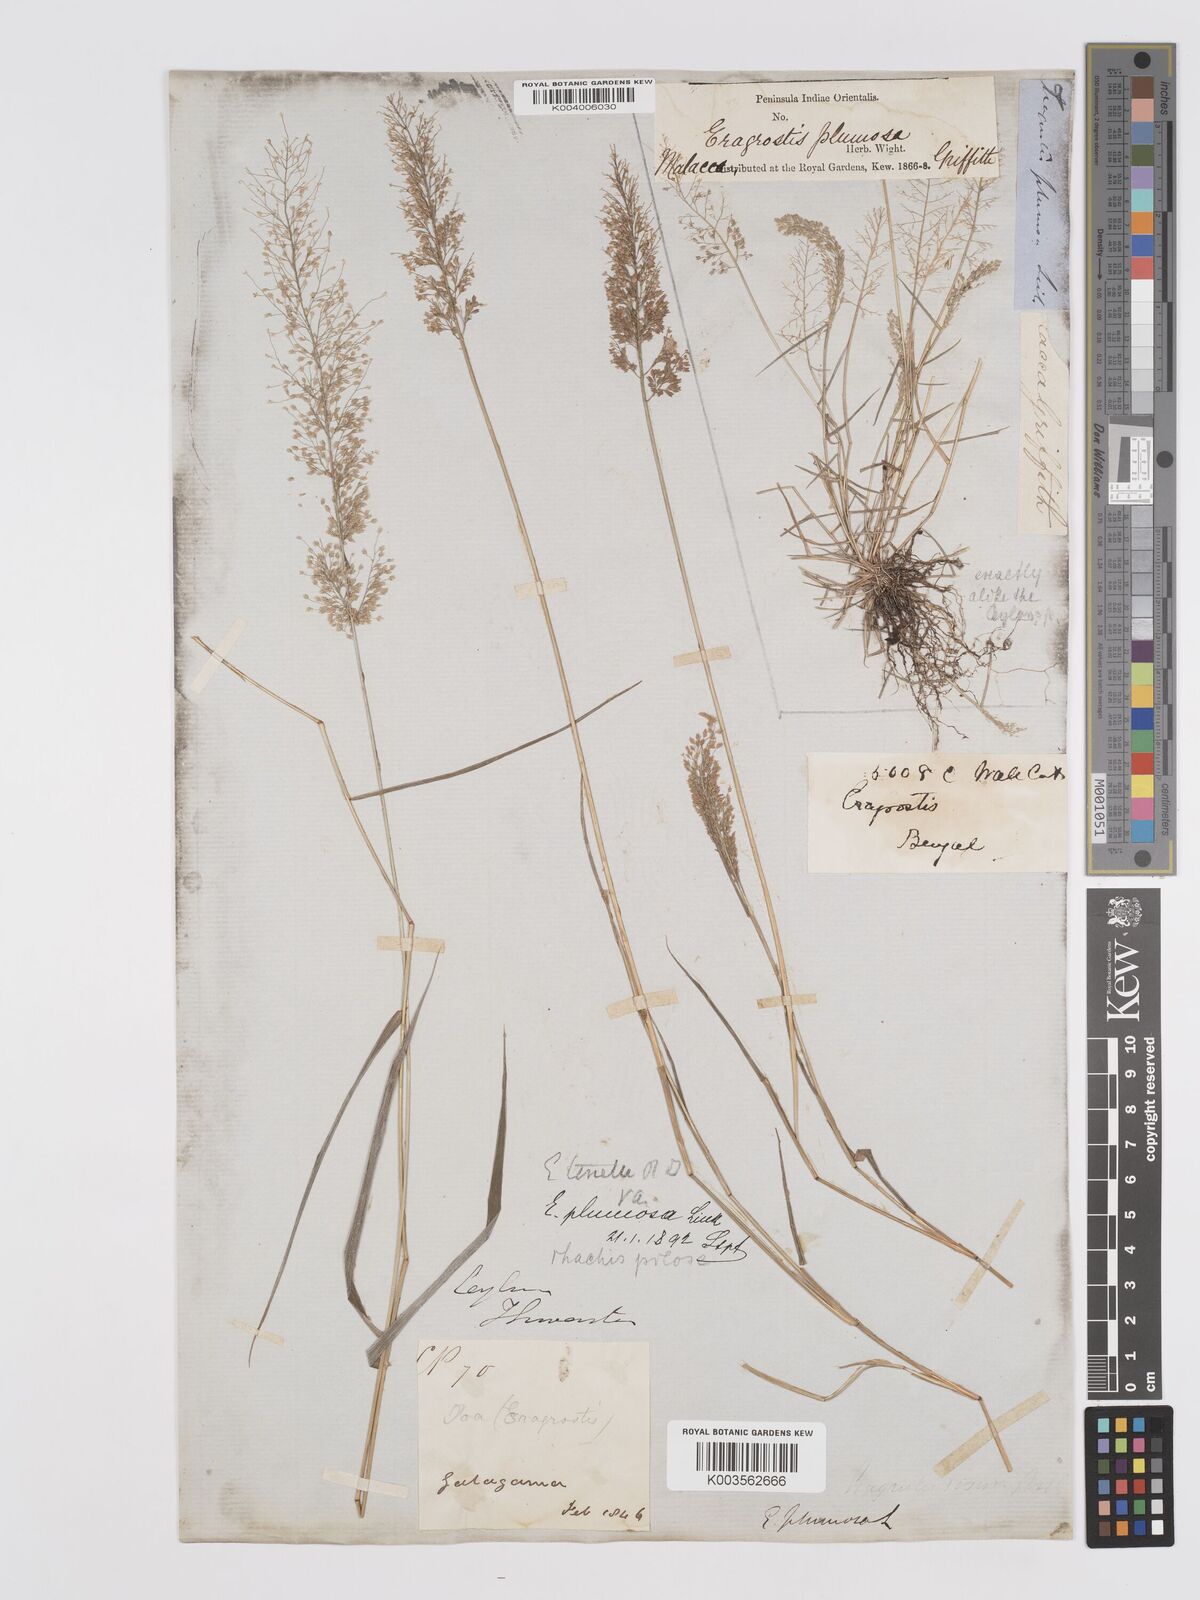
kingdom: Plantae
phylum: Tracheophyta
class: Liliopsida
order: Poales
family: Poaceae
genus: Eragrostis
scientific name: Eragrostis tenella
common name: Japanese lovegrass
